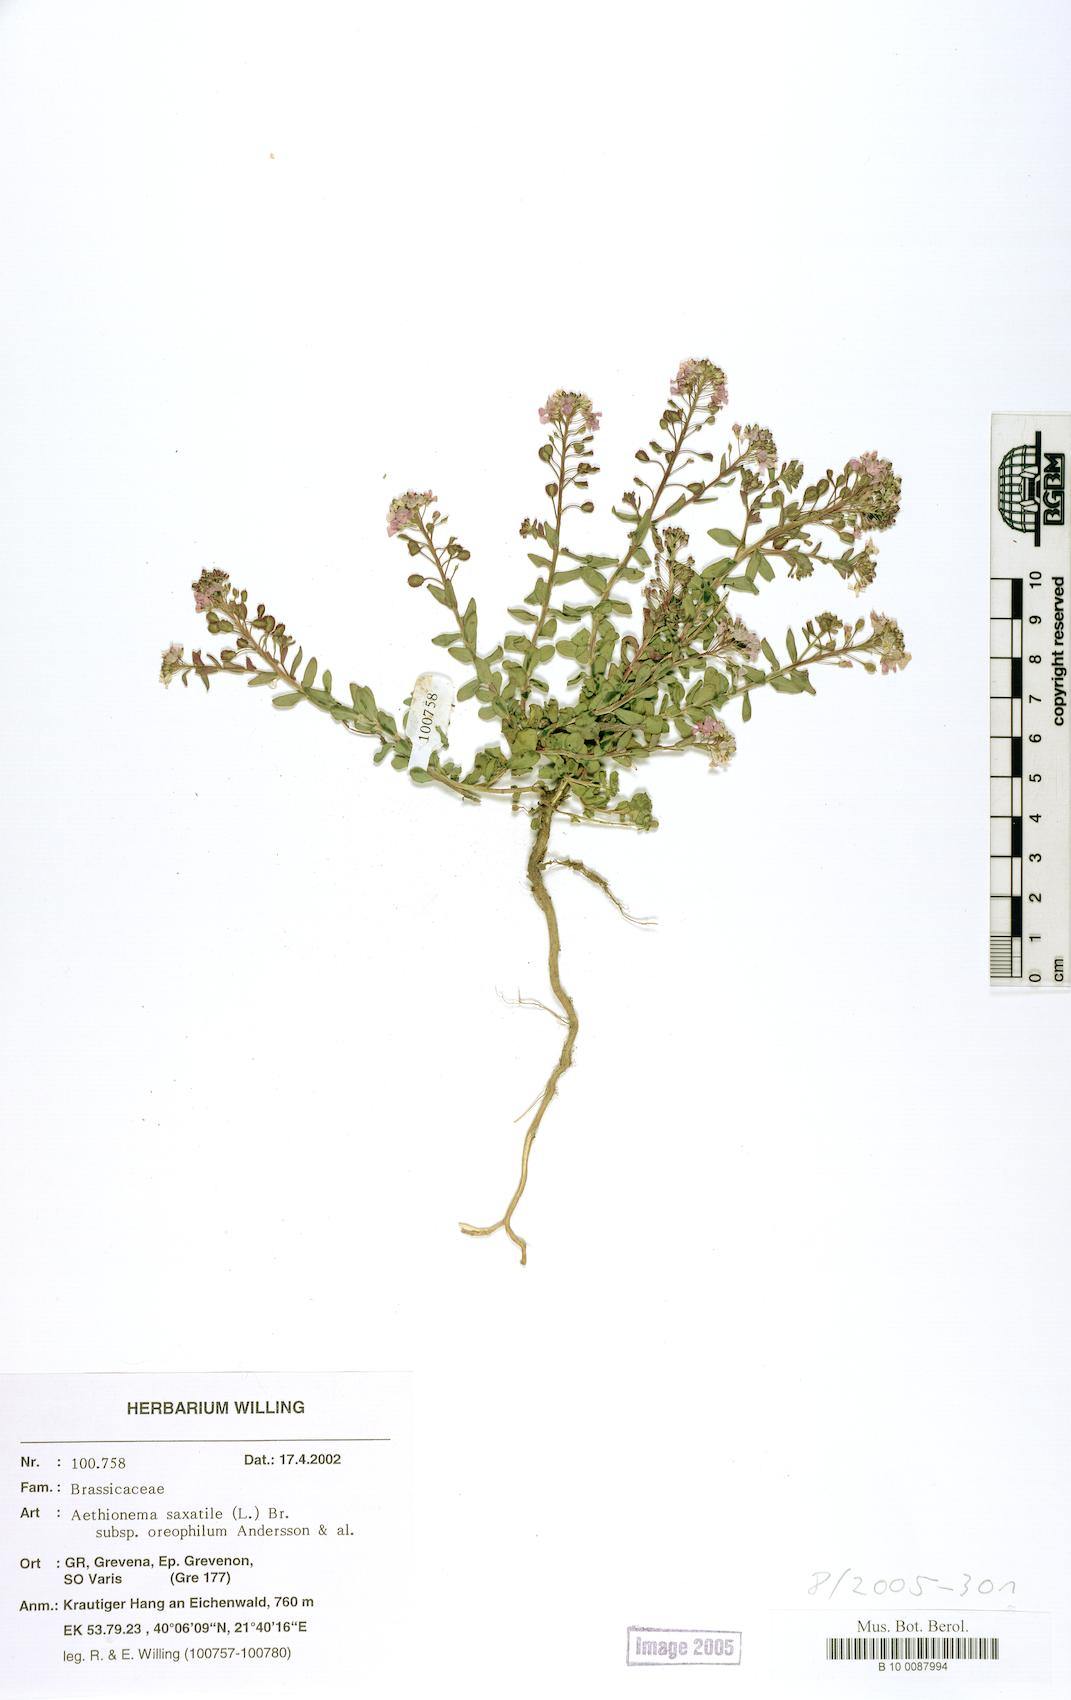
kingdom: Plantae
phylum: Tracheophyta
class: Magnoliopsida
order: Brassicales
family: Brassicaceae
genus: Aethionema
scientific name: Aethionema saxatile
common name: Burnt candytuft
